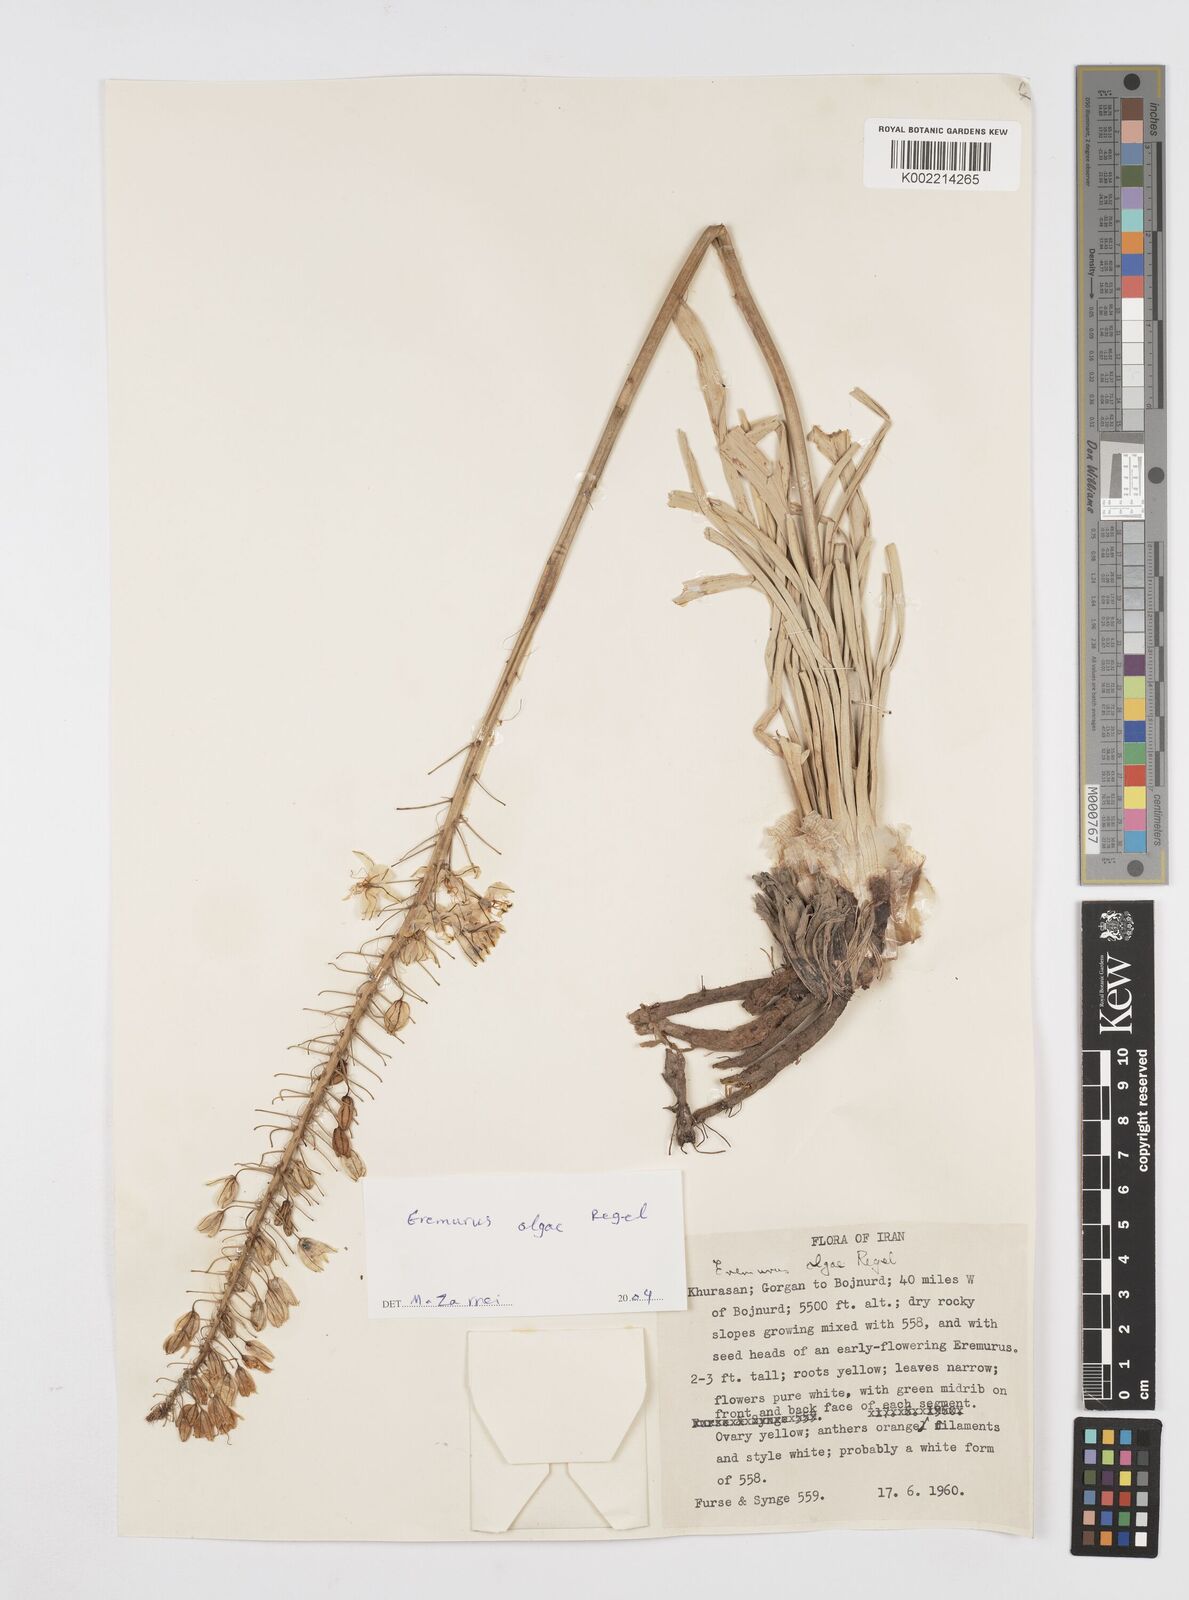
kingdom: Plantae
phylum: Tracheophyta
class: Liliopsida
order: Asparagales
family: Asphodelaceae
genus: Eremurus
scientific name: Eremurus olgae
